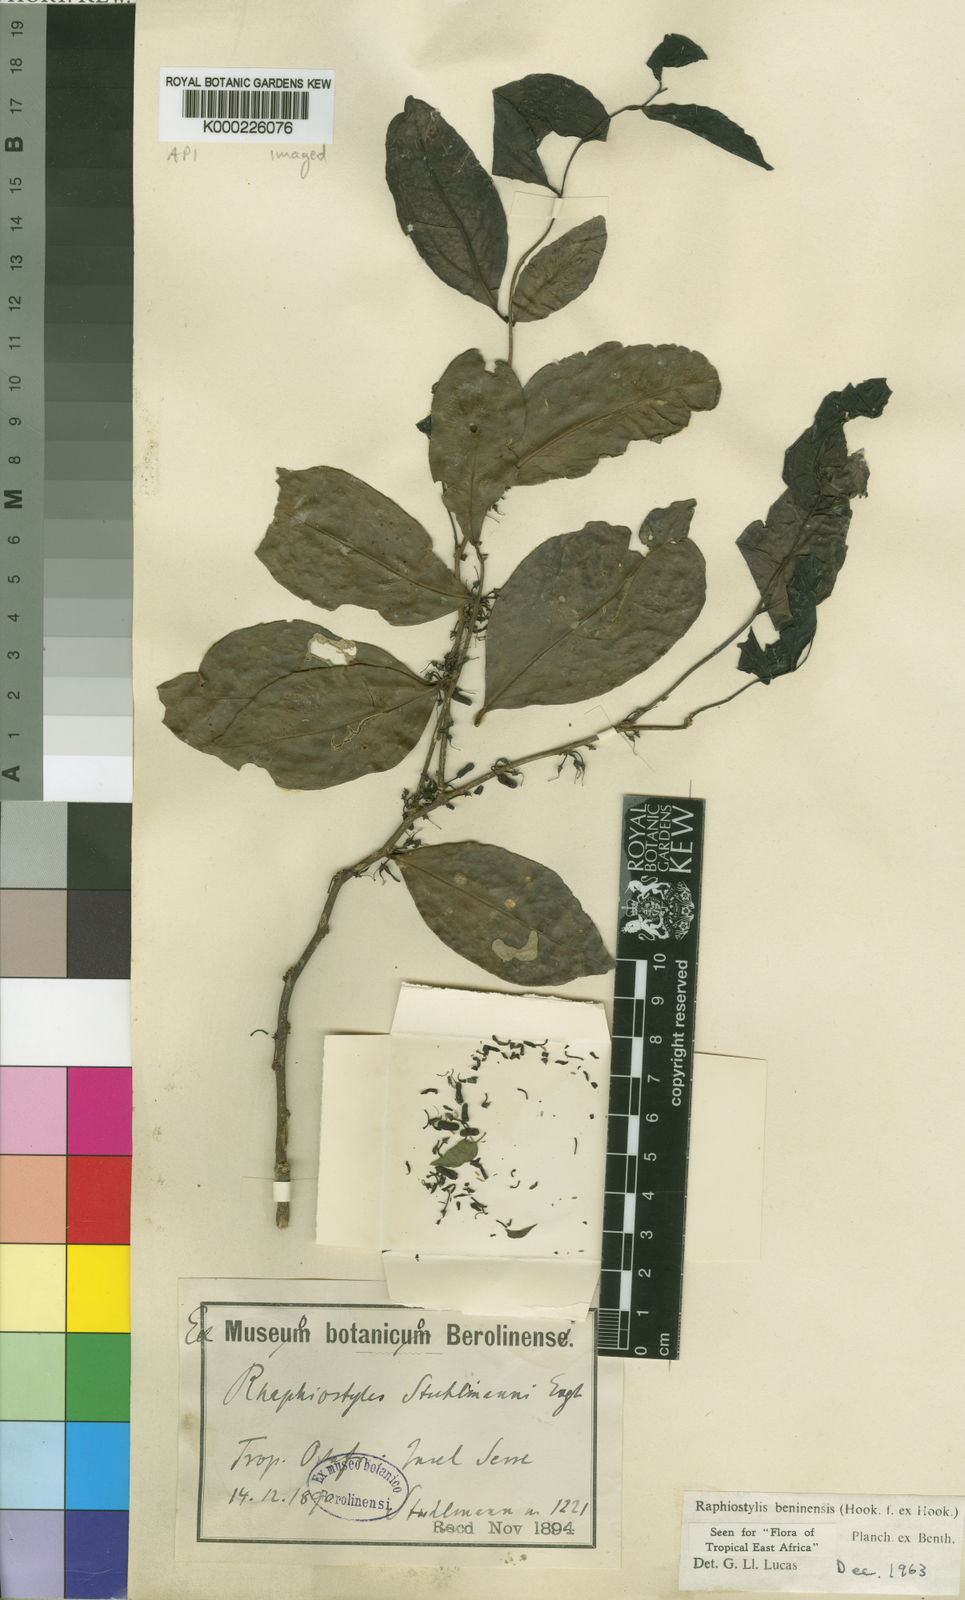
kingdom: Plantae
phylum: Tracheophyta
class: Magnoliopsida
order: Metteniusales
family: Metteniusaceae
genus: Rhaphiostylis
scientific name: Rhaphiostylis beninensis
